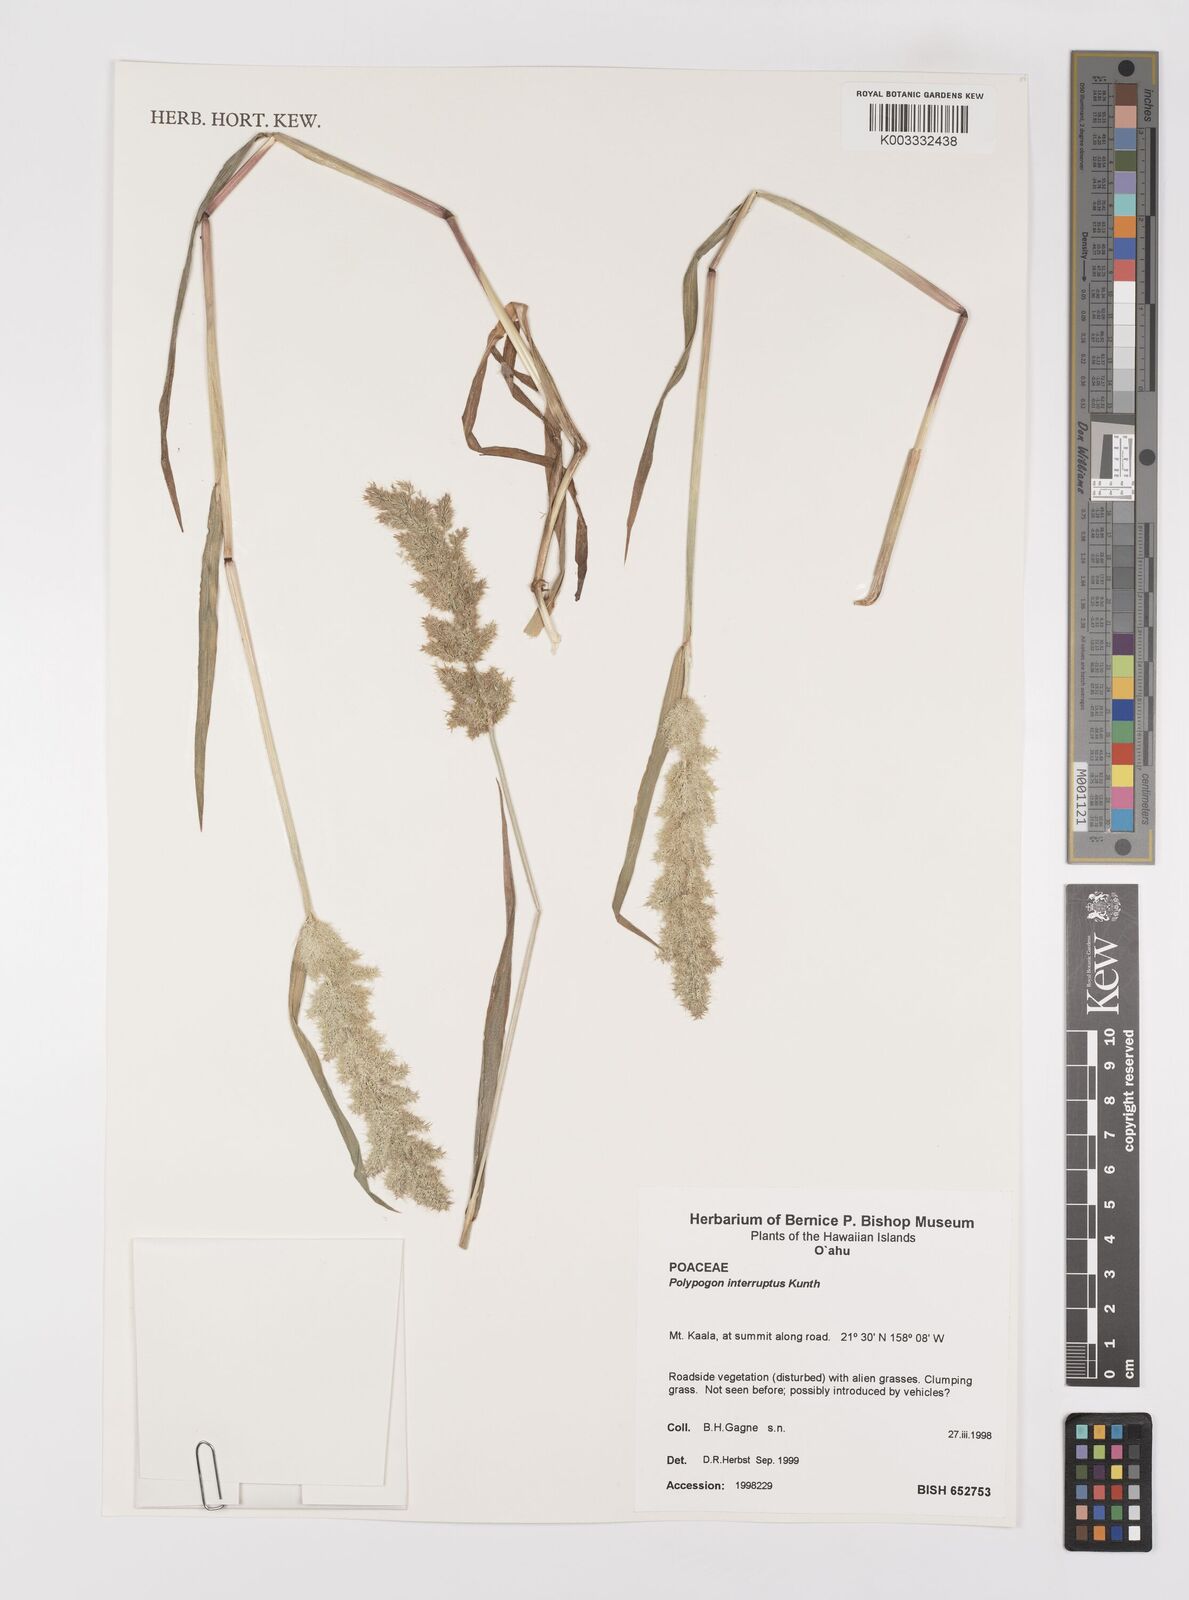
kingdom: Plantae
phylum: Tracheophyta
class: Liliopsida
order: Poales
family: Poaceae
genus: Polypogon
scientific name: Polypogon interruptus
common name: Ditch polypogon
